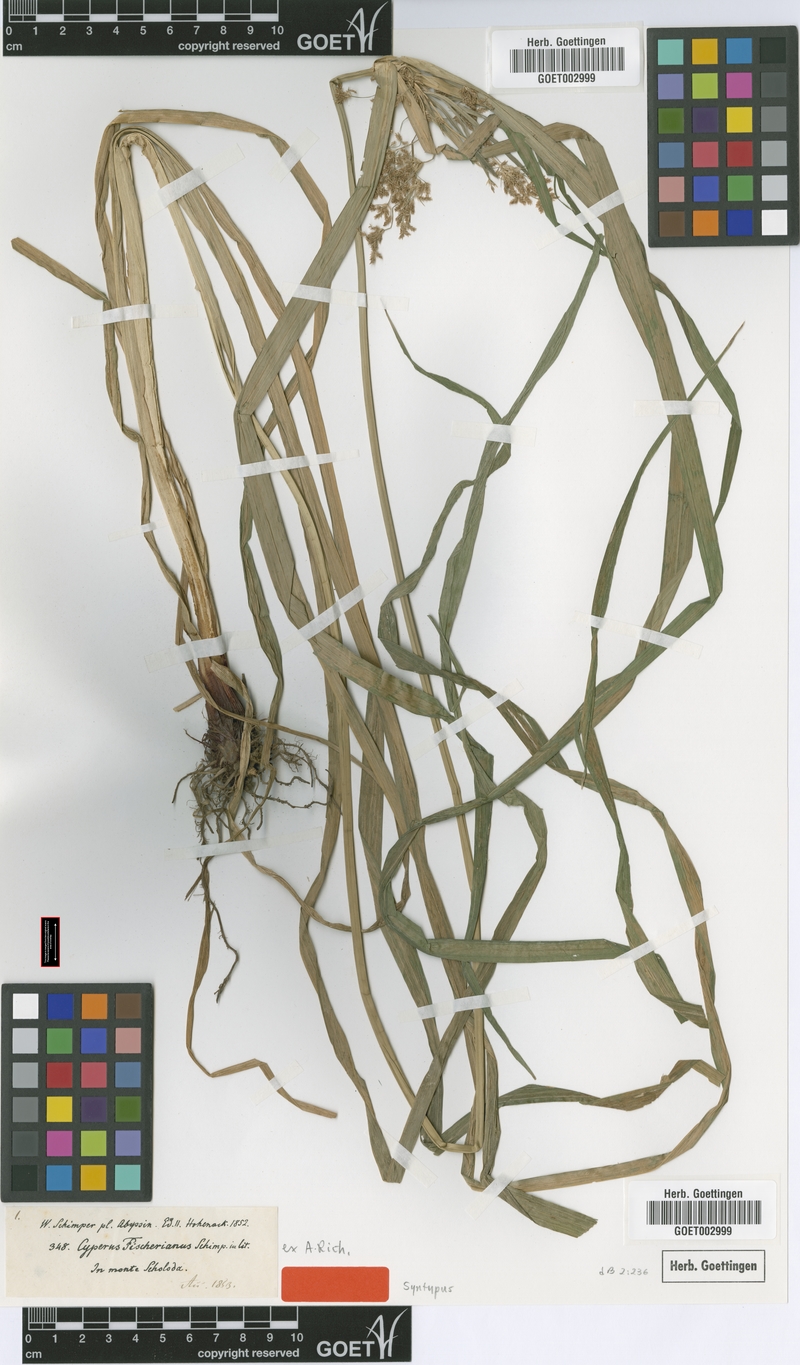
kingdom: Plantae
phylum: Tracheophyta
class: Liliopsida
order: Poales
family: Cyperaceae
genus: Cyperus
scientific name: Cyperus fischerianus
